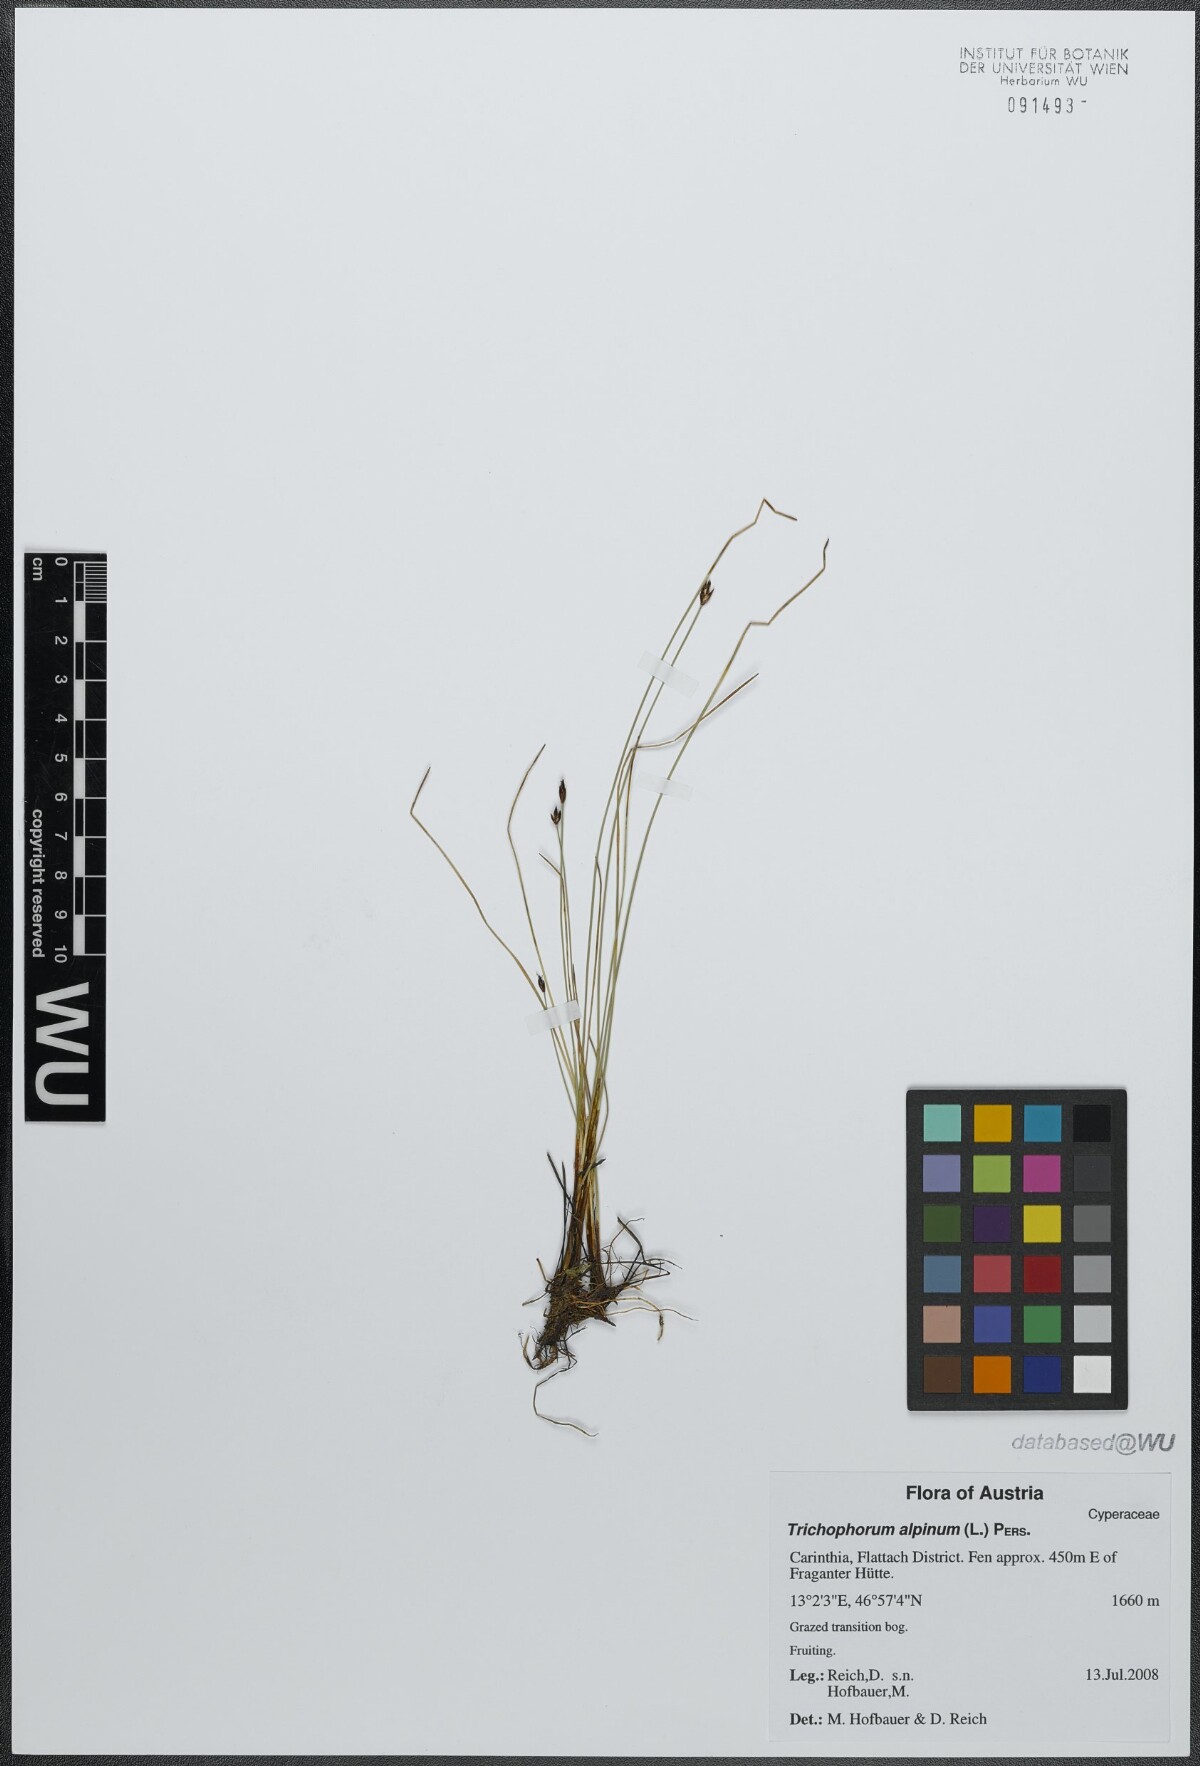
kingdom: Plantae
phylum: Tracheophyta
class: Liliopsida
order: Poales
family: Cyperaceae
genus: Trichophorum
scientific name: Trichophorum alpinum
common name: Alpine bulrush
